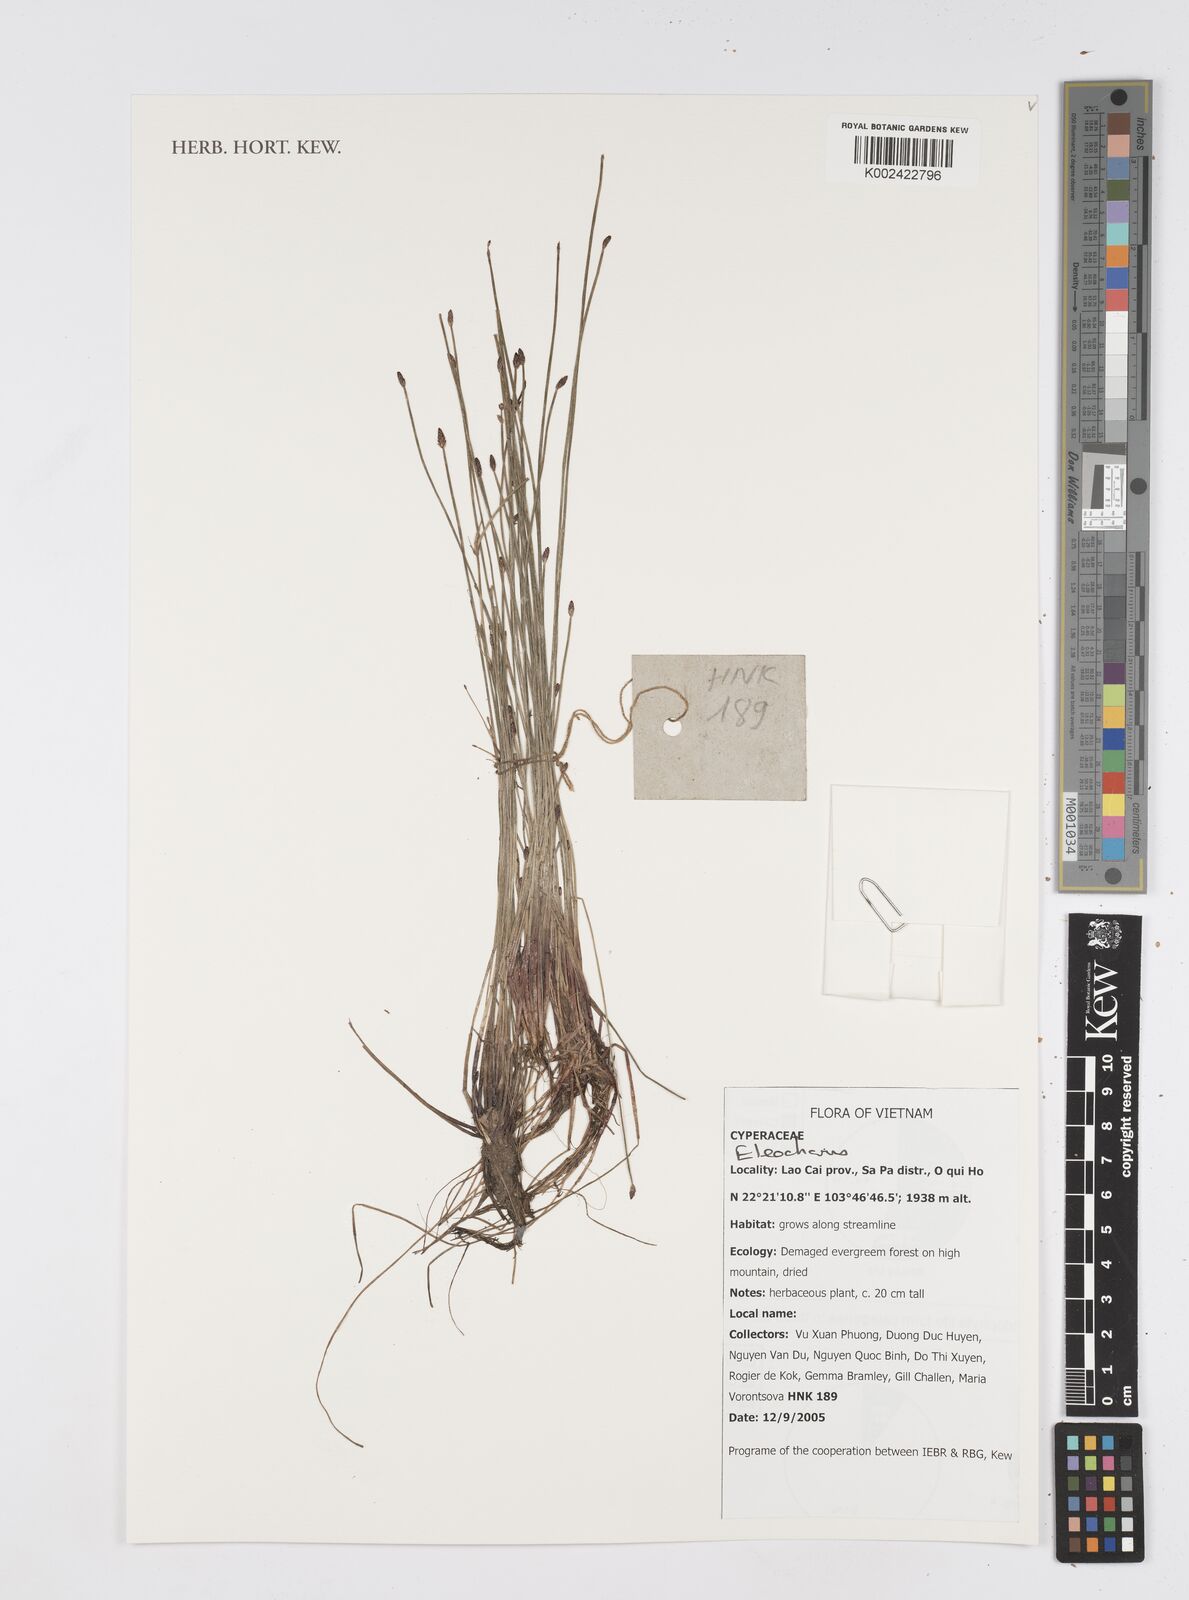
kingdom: Plantae
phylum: Tracheophyta
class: Liliopsida
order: Poales
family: Cyperaceae
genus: Eleocharis
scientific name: Eleocharis
